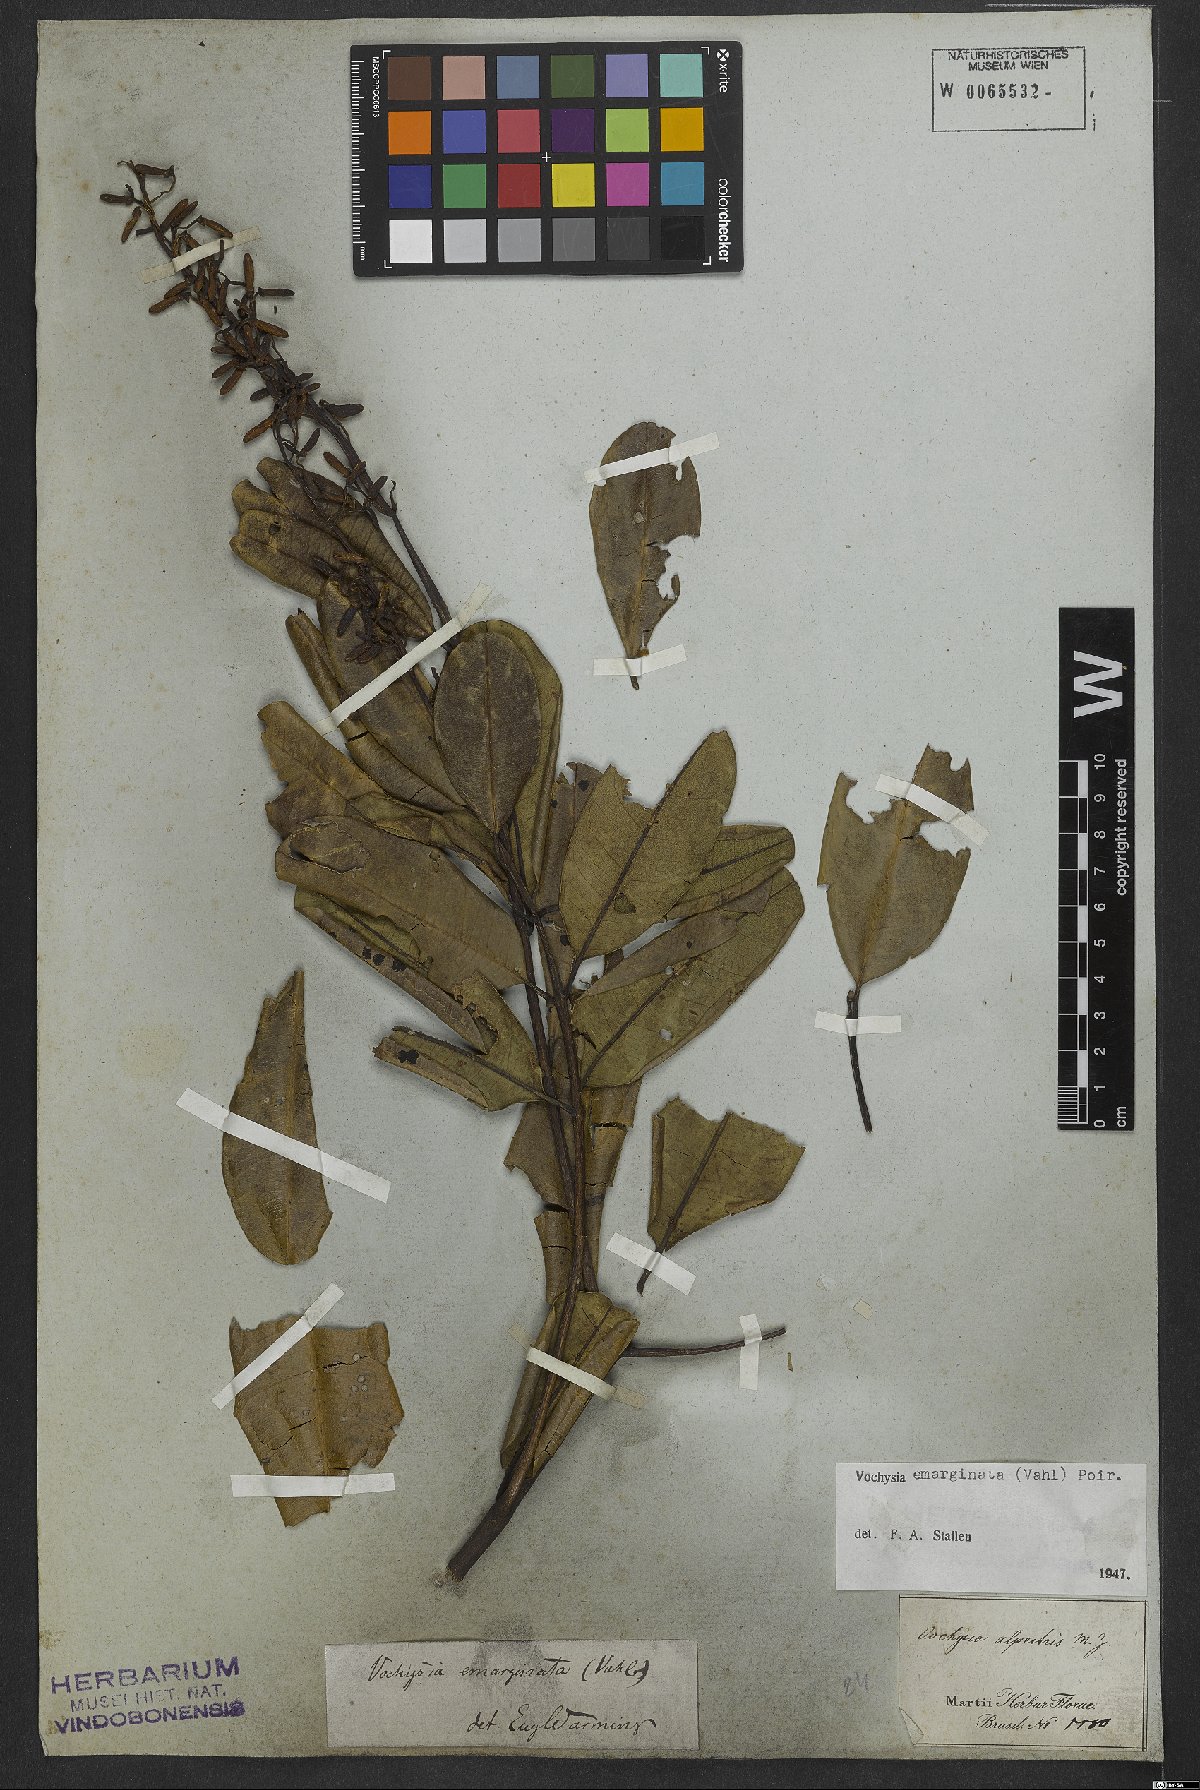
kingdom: Plantae
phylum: Tracheophyta
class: Magnoliopsida
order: Myrtales
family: Vochysiaceae
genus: Vochysia
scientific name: Vochysia emarginata
